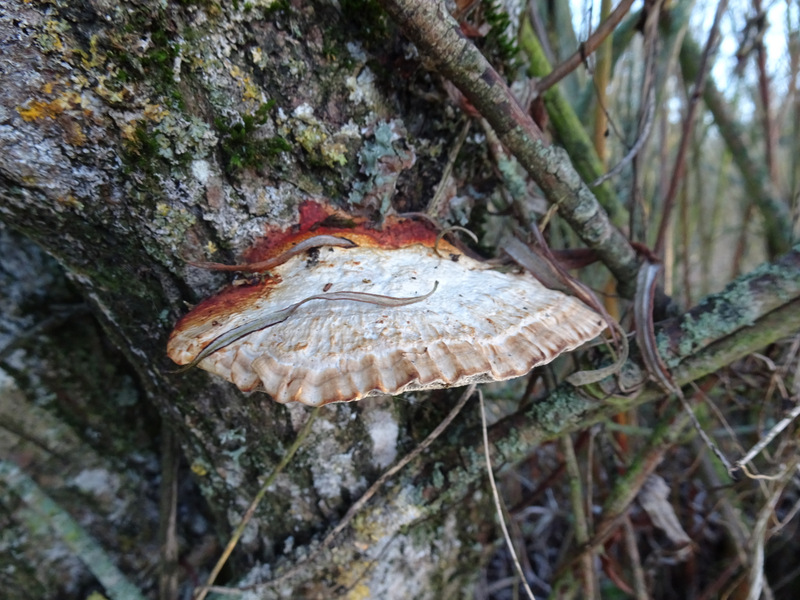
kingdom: Fungi
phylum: Basidiomycota
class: Agaricomycetes
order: Polyporales
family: Polyporaceae
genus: Daedaleopsis
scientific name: Daedaleopsis confragosa
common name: rødmende læderporesvamp
